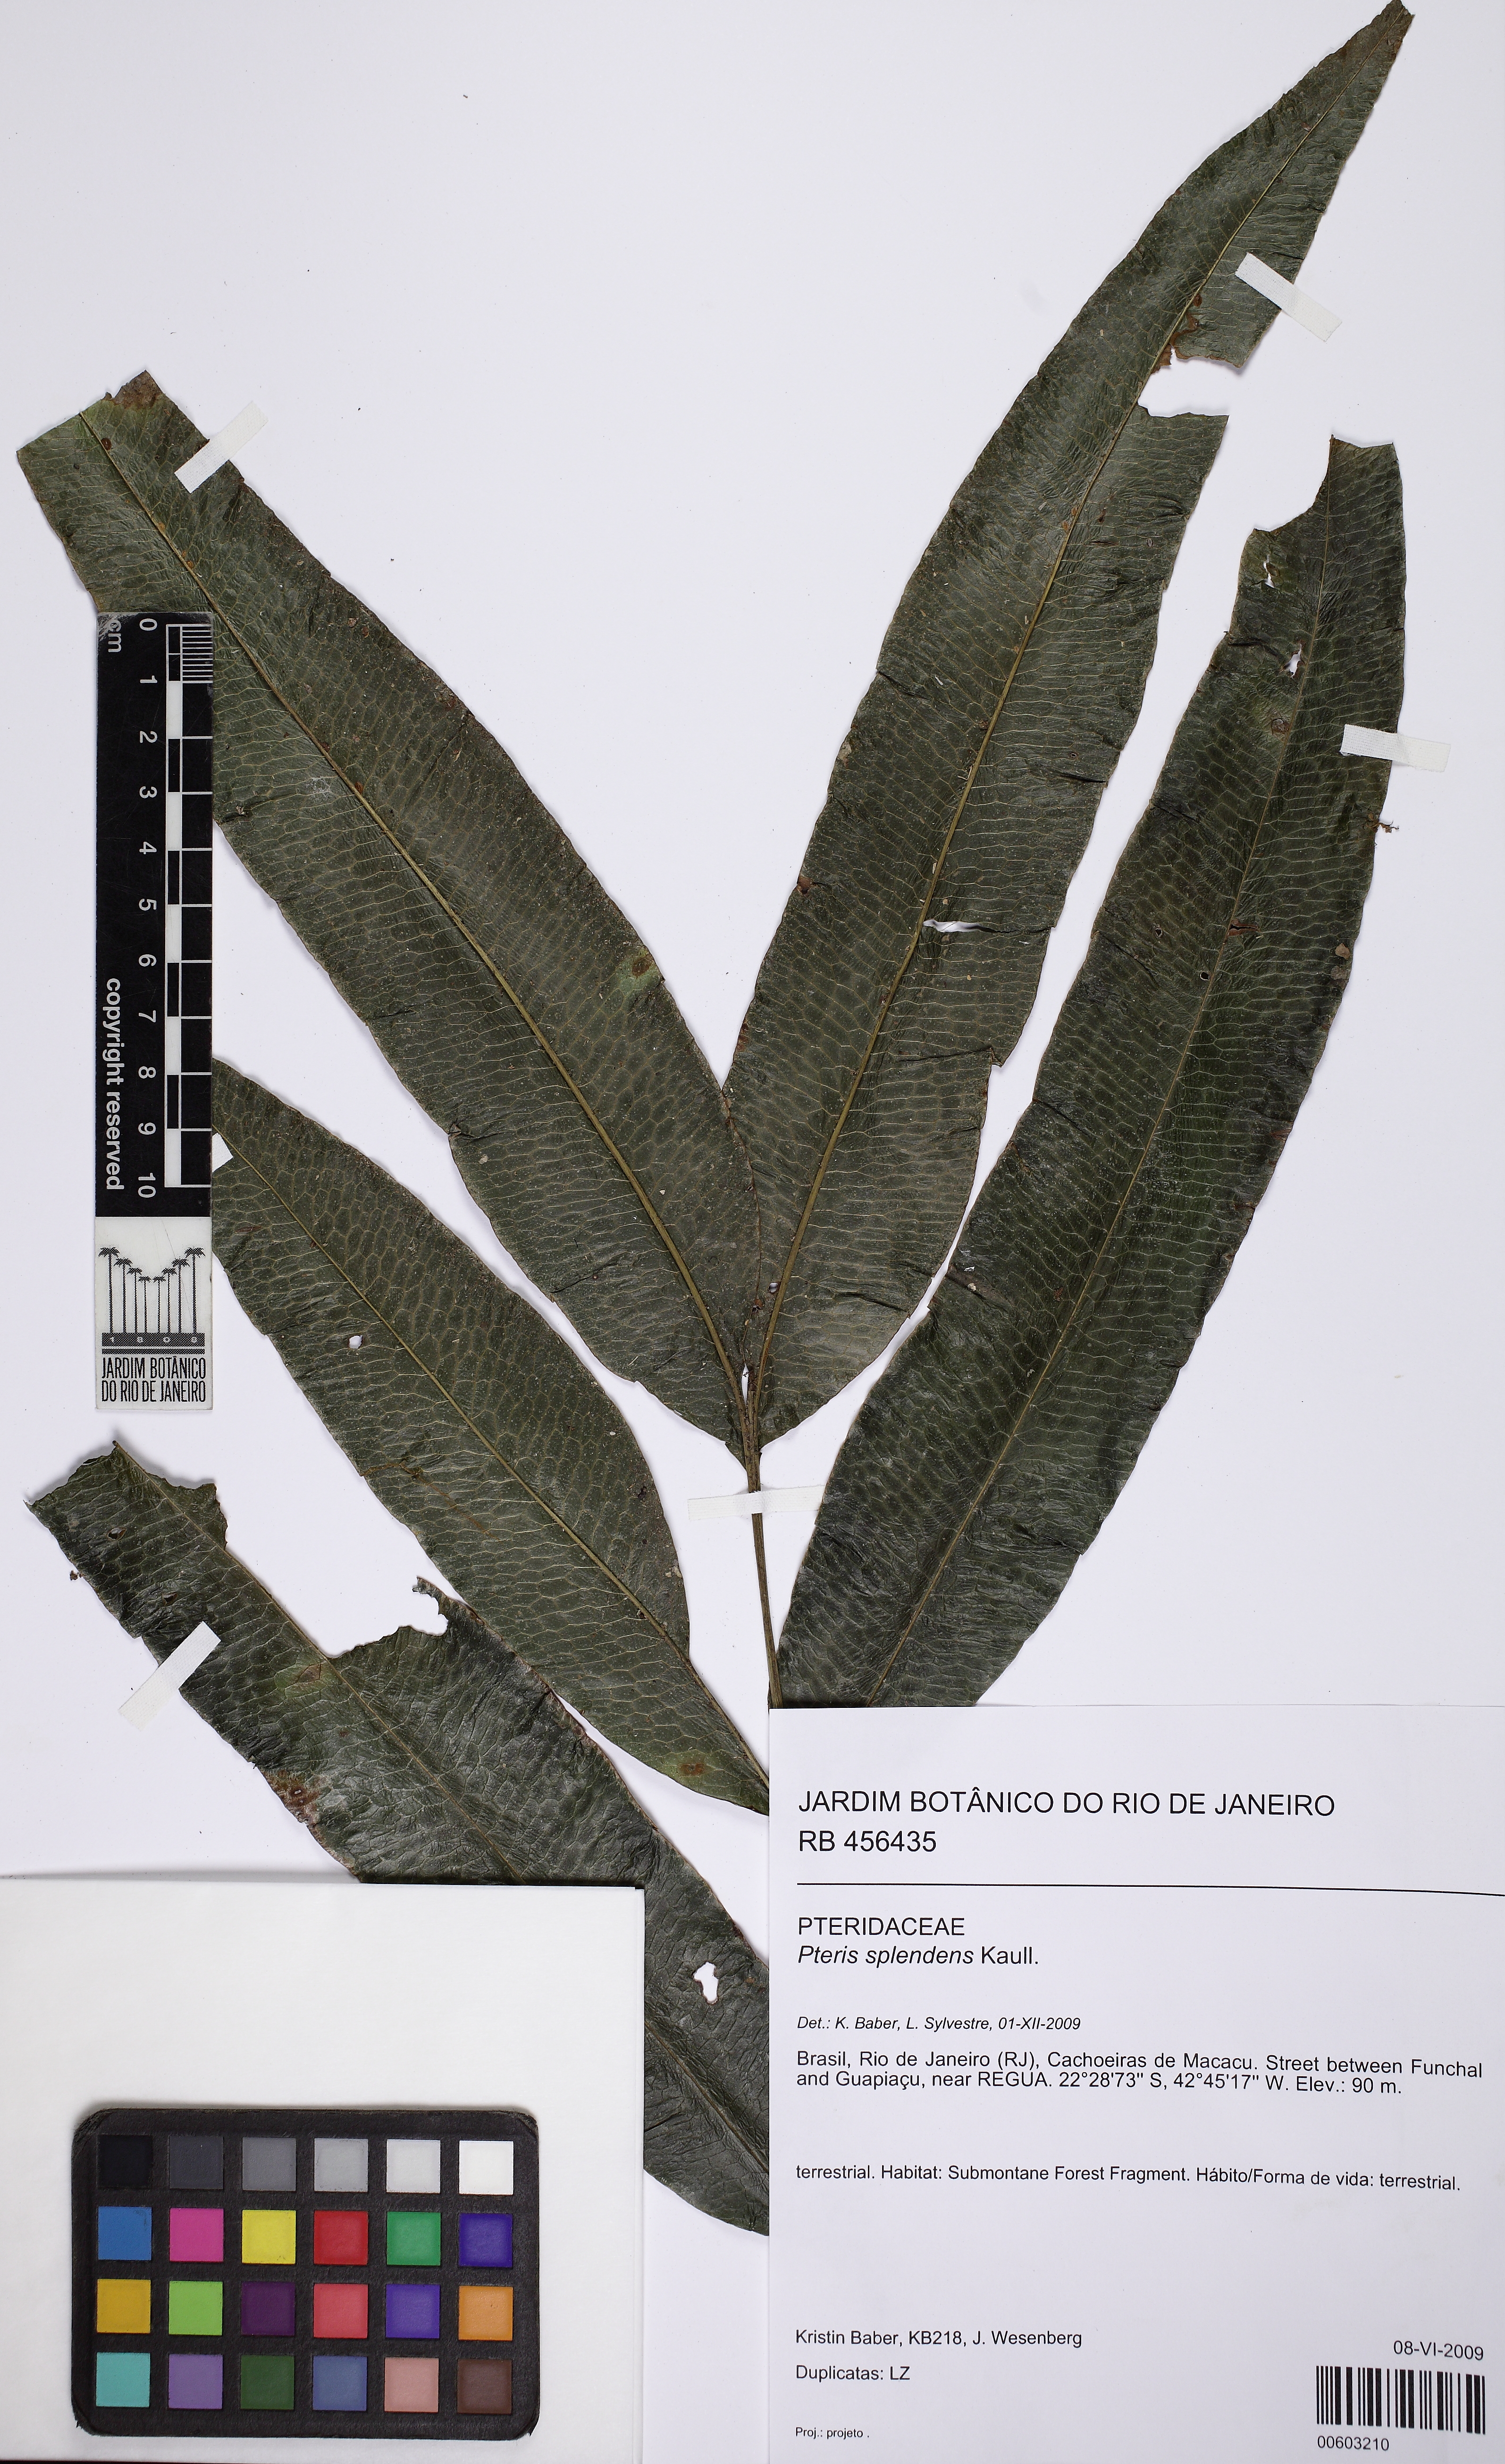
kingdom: Plantae
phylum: Tracheophyta
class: Polypodiopsida
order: Polypodiales
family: Pteridaceae
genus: Pteris
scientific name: Pteris splendens
